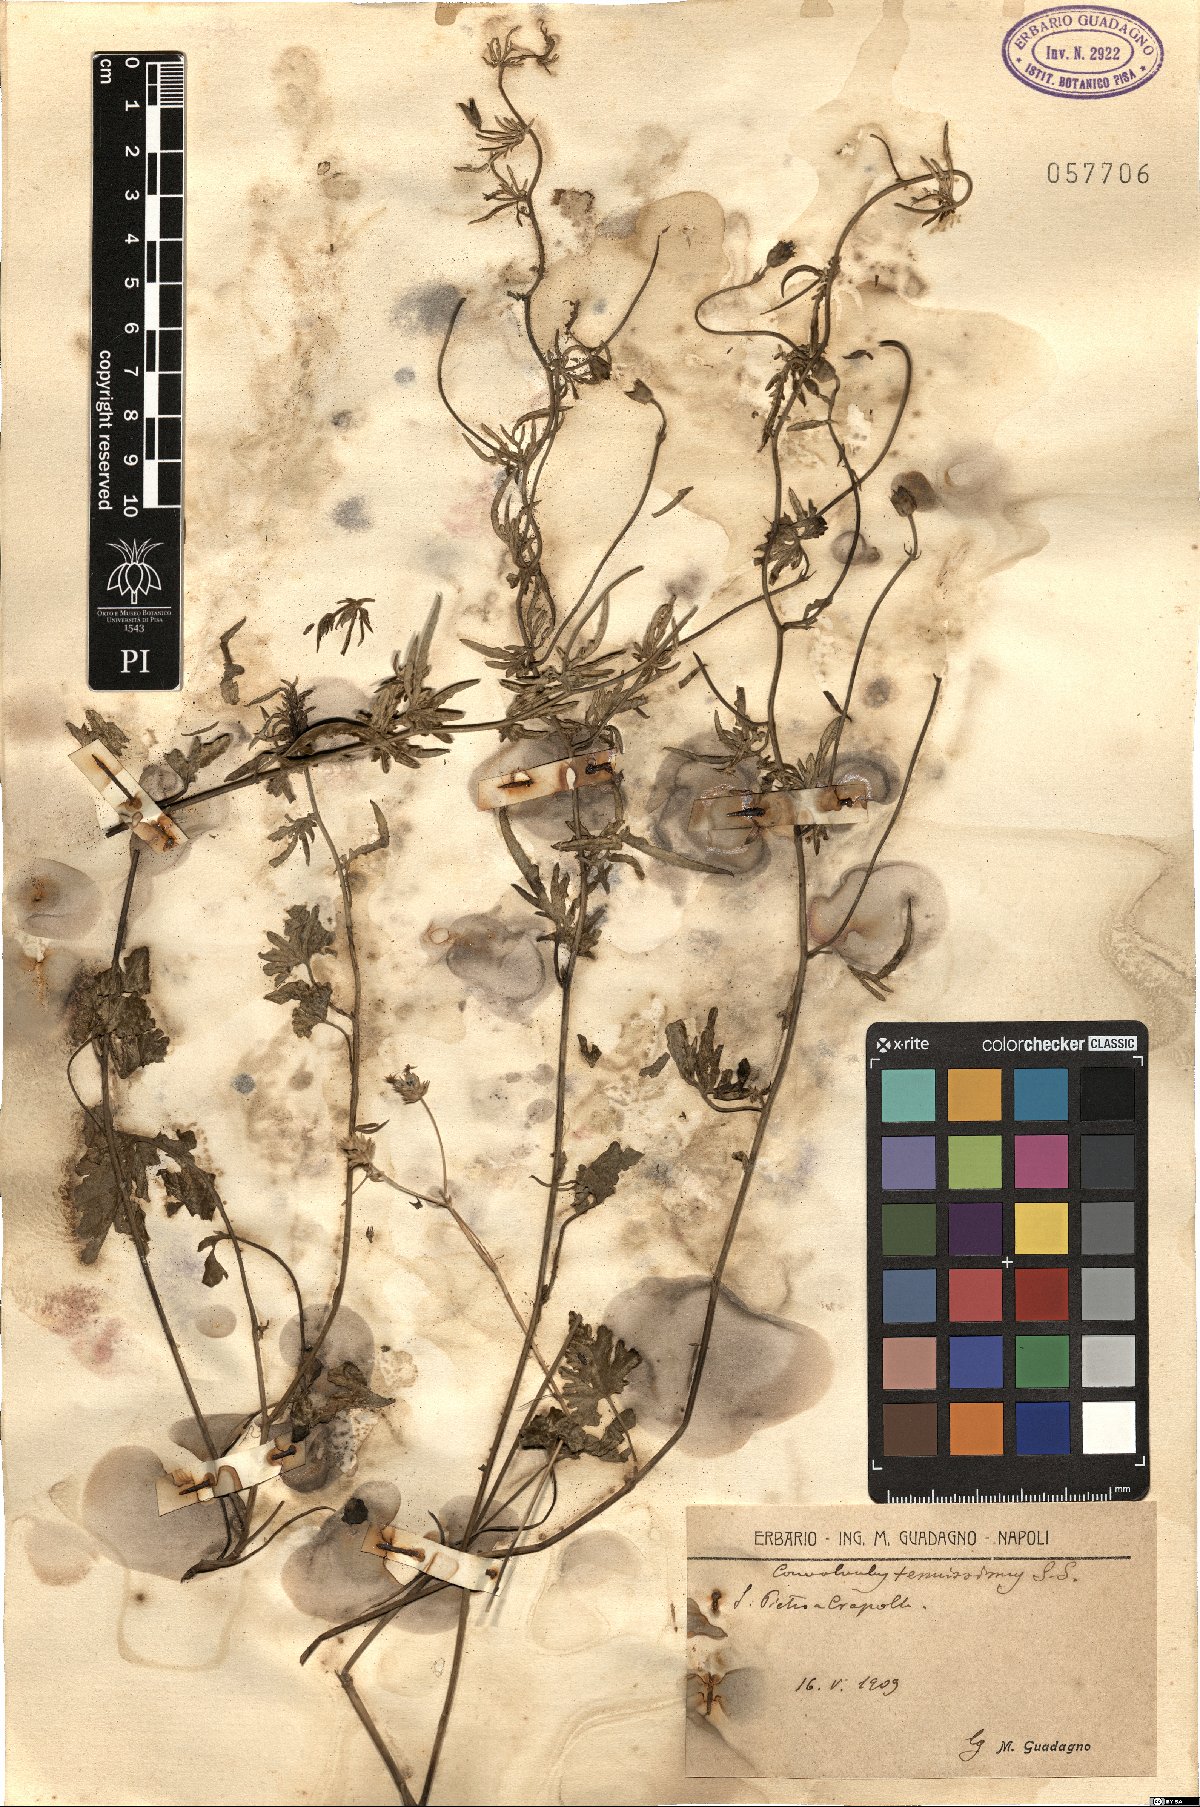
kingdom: Plantae
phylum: Tracheophyta
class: Magnoliopsida
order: Solanales
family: Convolvulaceae
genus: Convolvulus
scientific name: Convolvulus elegantissimus
